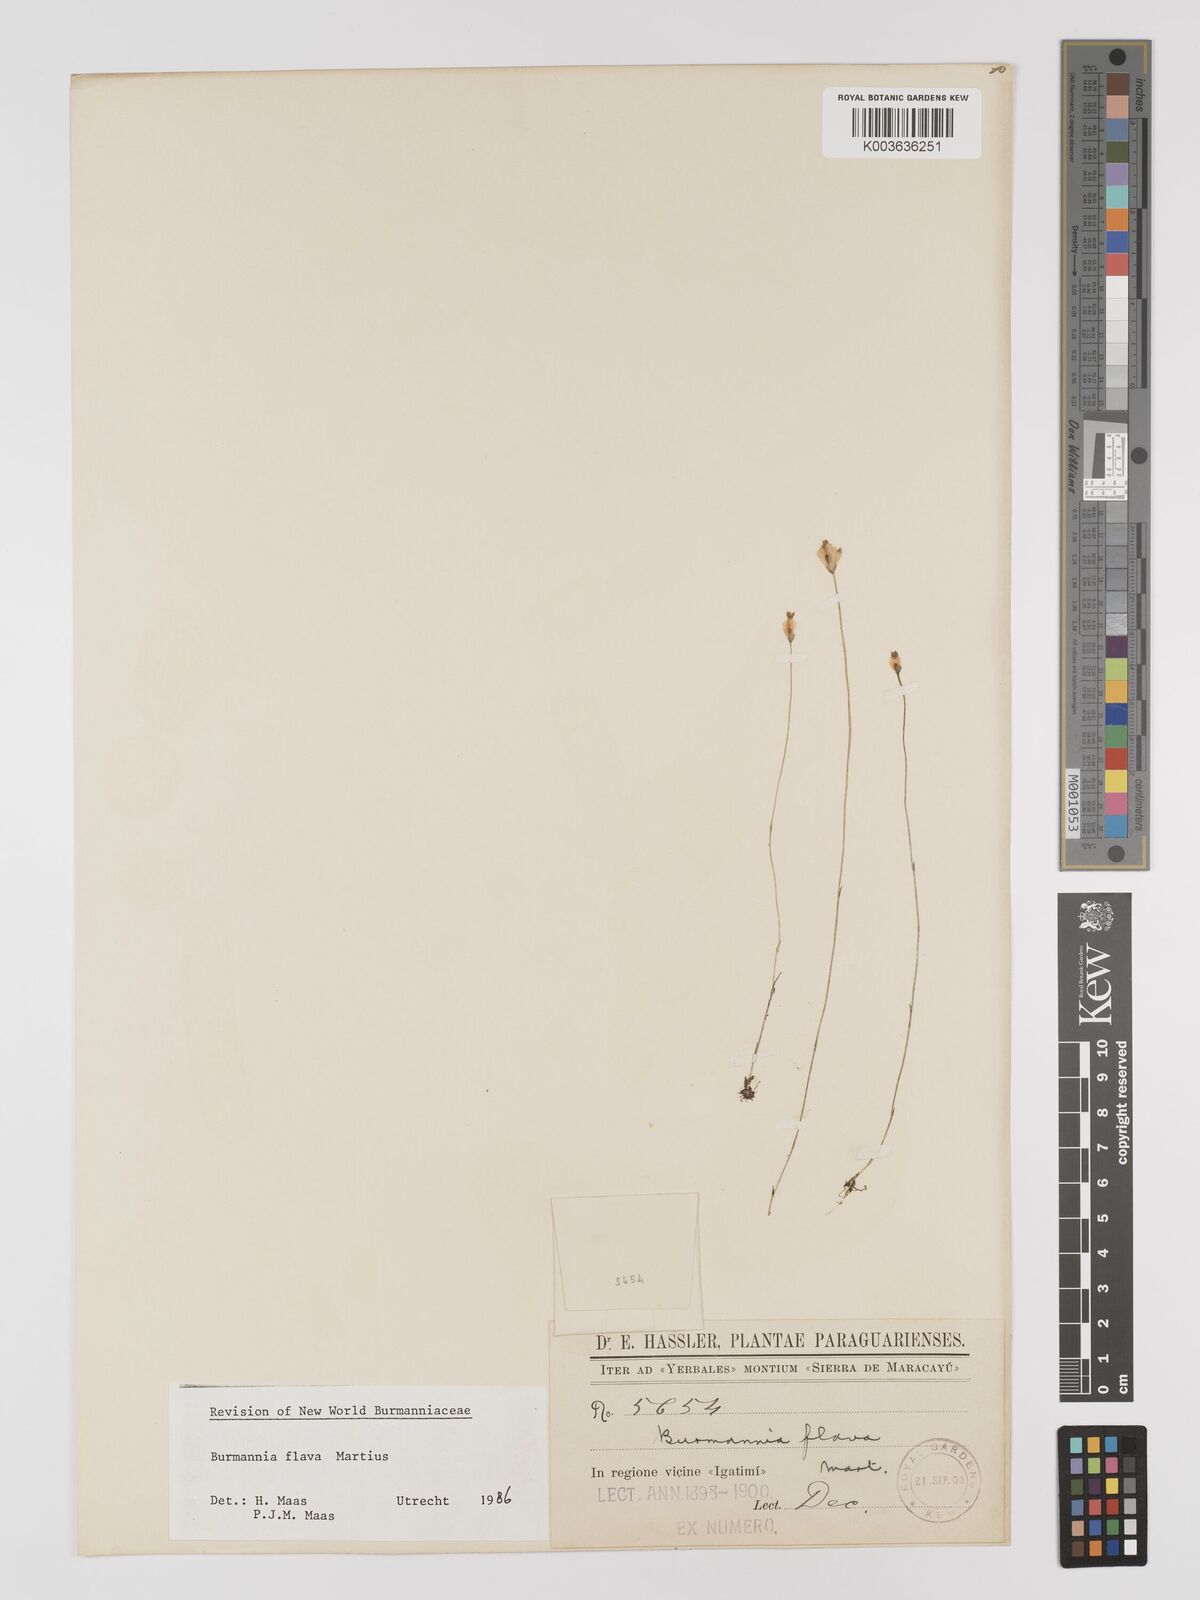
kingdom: Plantae
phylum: Tracheophyta
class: Liliopsida
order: Dioscoreales
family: Burmanniaceae
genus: Burmannia
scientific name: Burmannia flava
